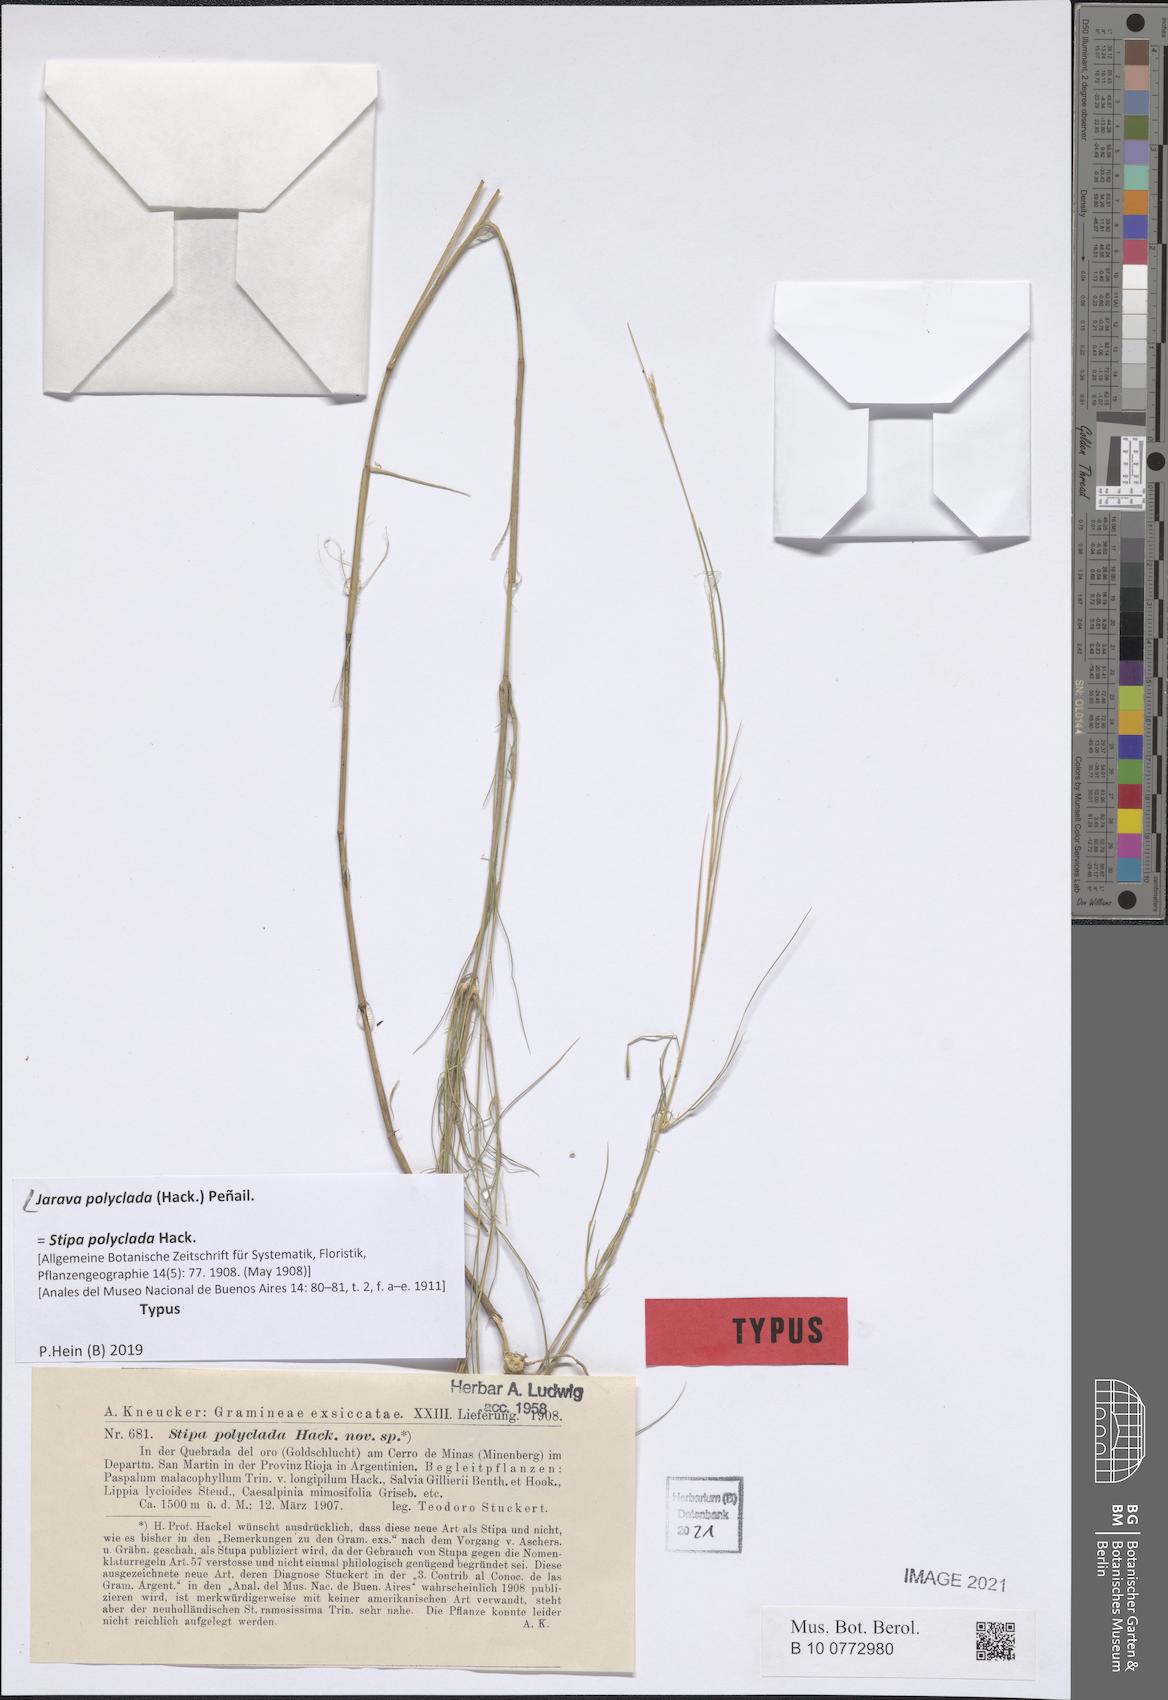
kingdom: Plantae
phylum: Tracheophyta
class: Liliopsida
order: Poales
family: Poaceae
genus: Stipa
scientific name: Stipa polyclada
